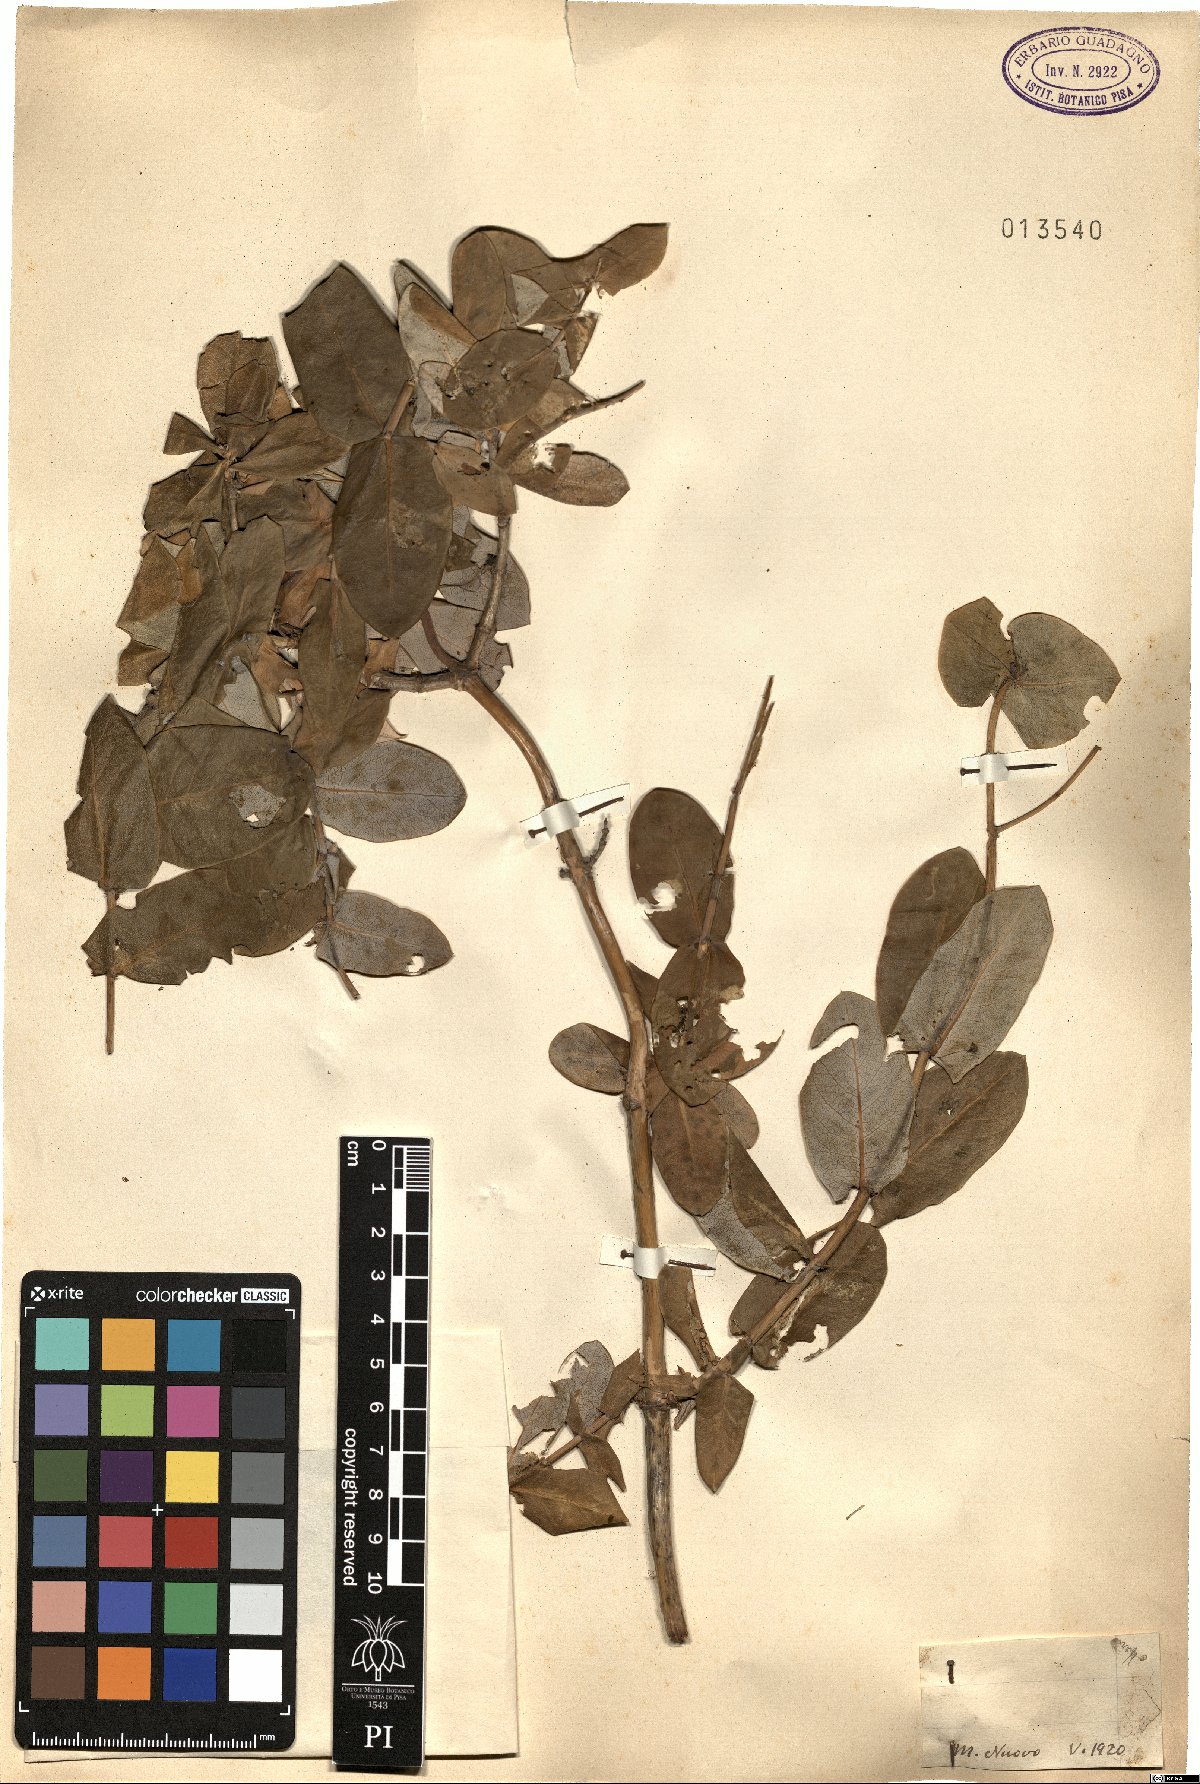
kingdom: Plantae
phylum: Tracheophyta
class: Magnoliopsida
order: Dipsacales
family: Caprifoliaceae
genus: Lonicera
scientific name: Lonicera
